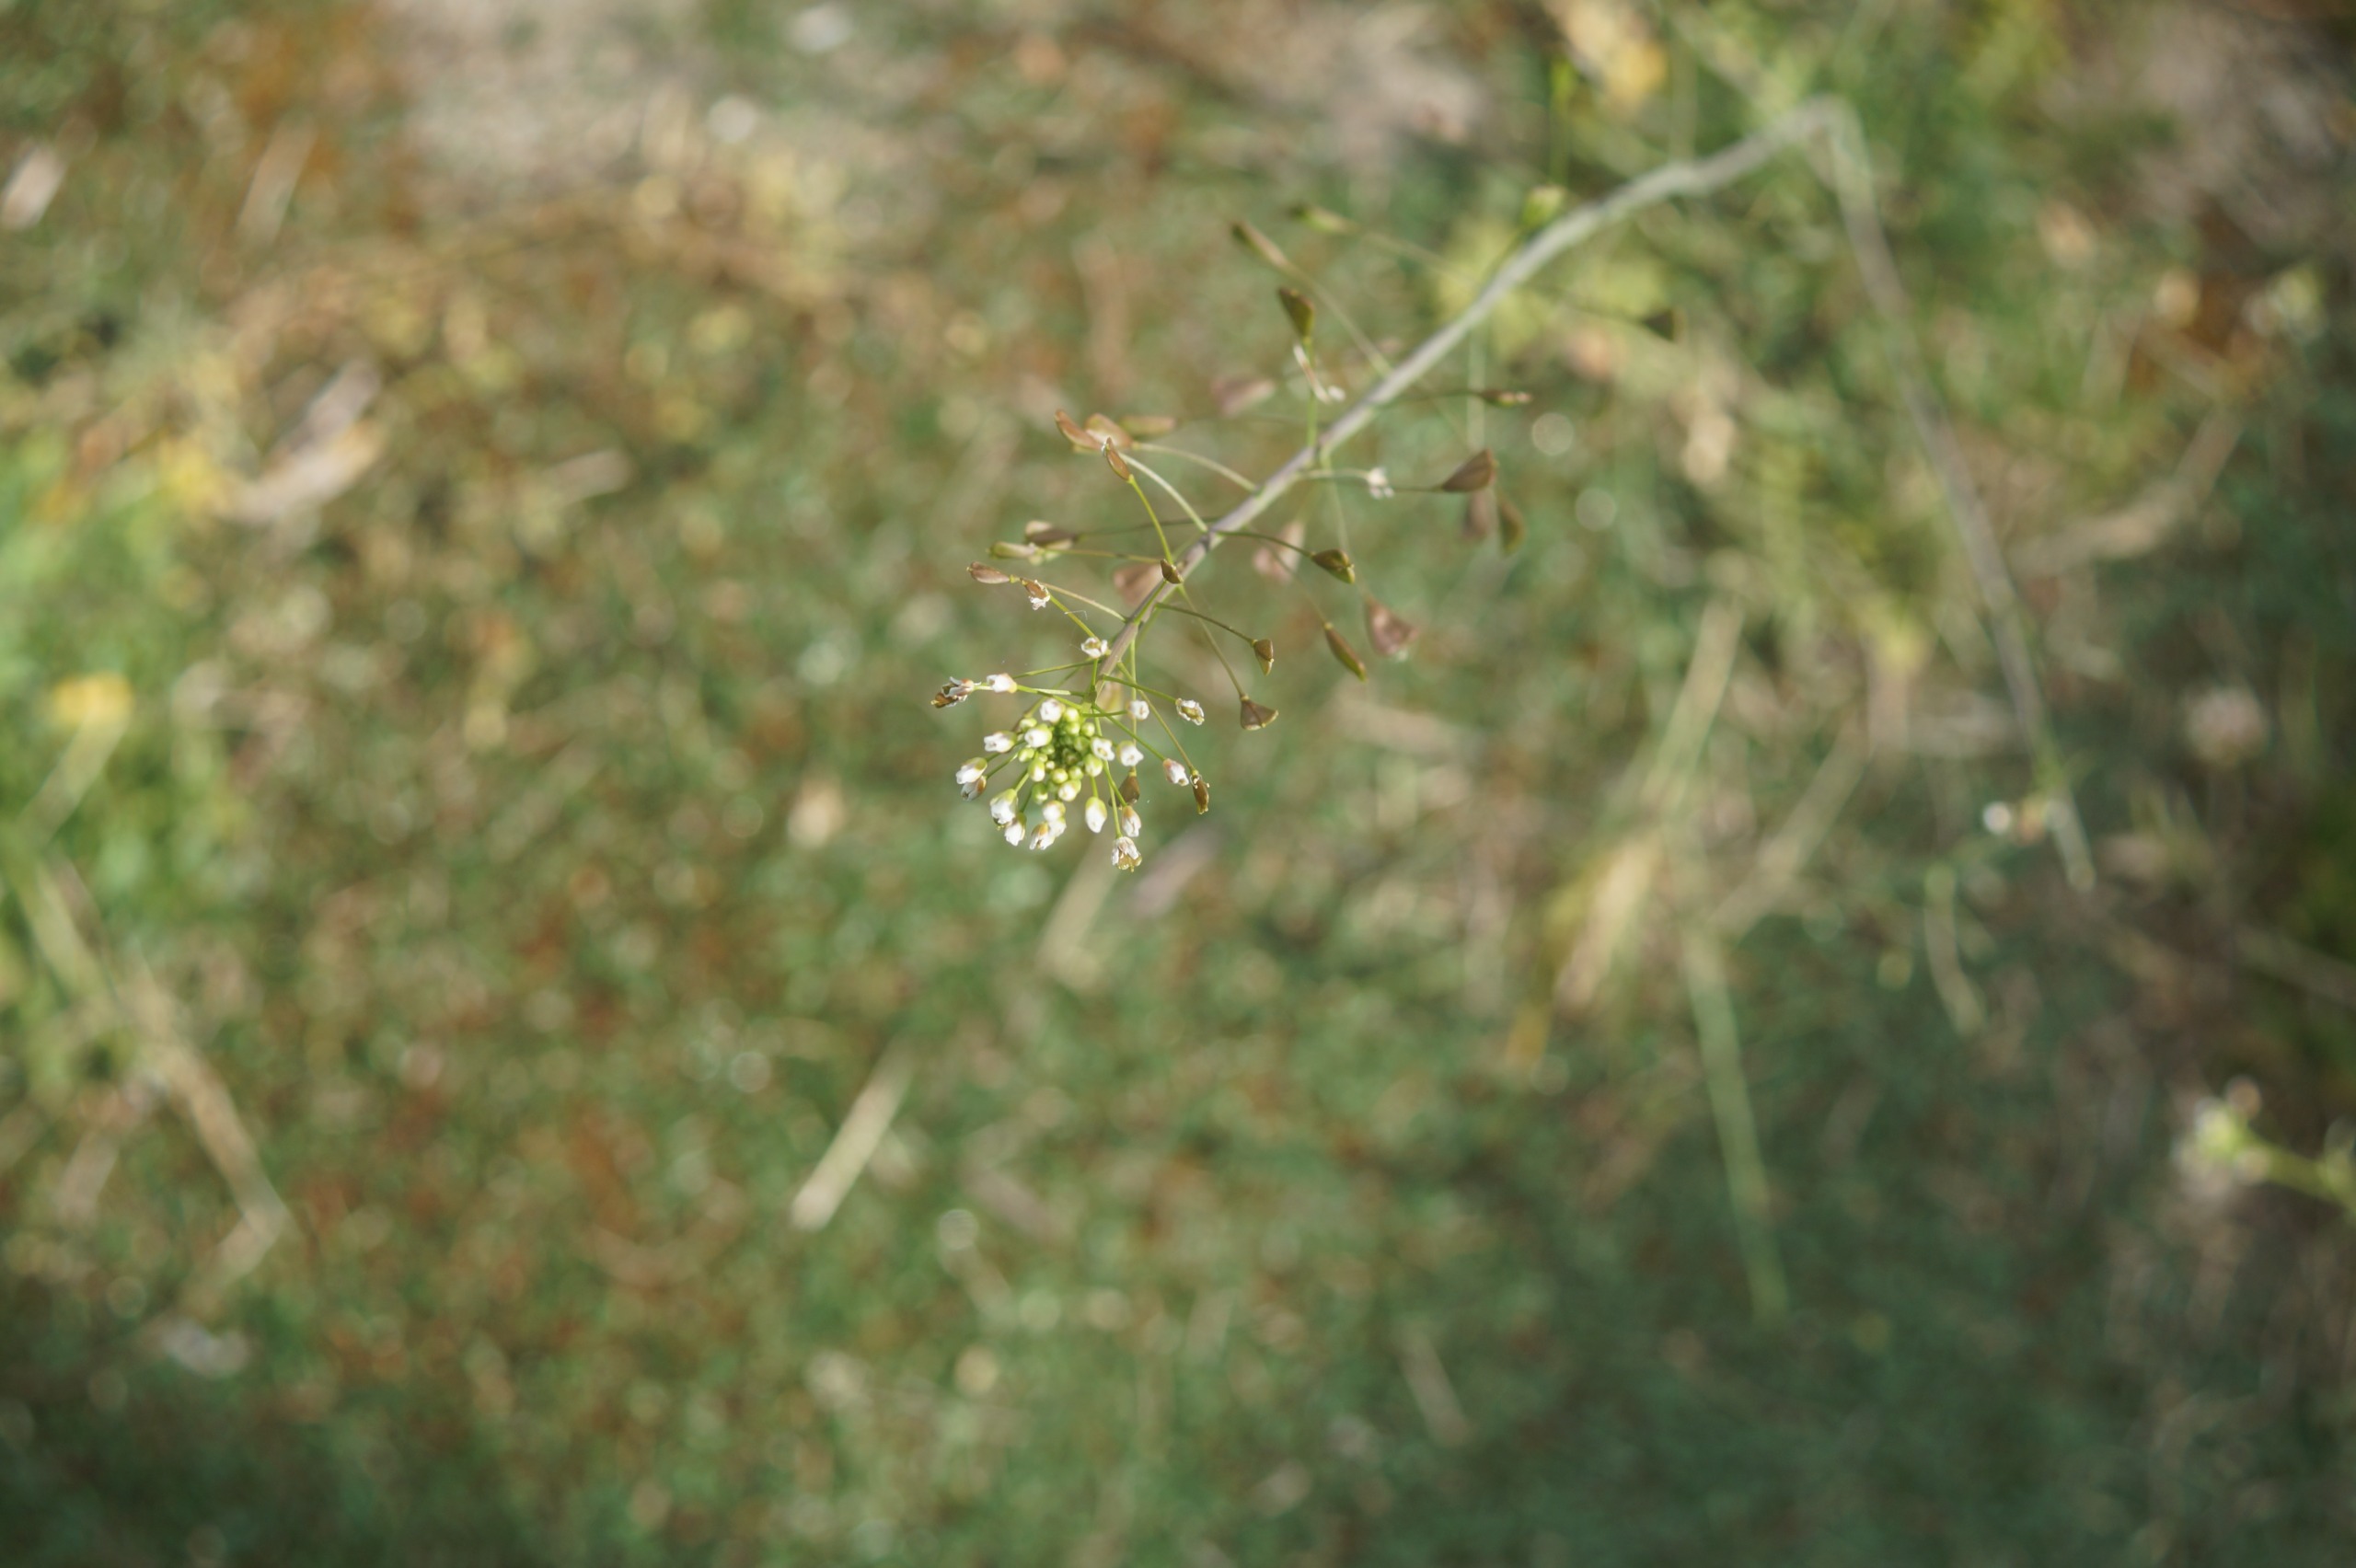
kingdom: Plantae
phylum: Tracheophyta
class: Magnoliopsida
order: Brassicales
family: Brassicaceae
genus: Capsella
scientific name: Capsella bursa-pastoris
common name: Hyrdetaske
